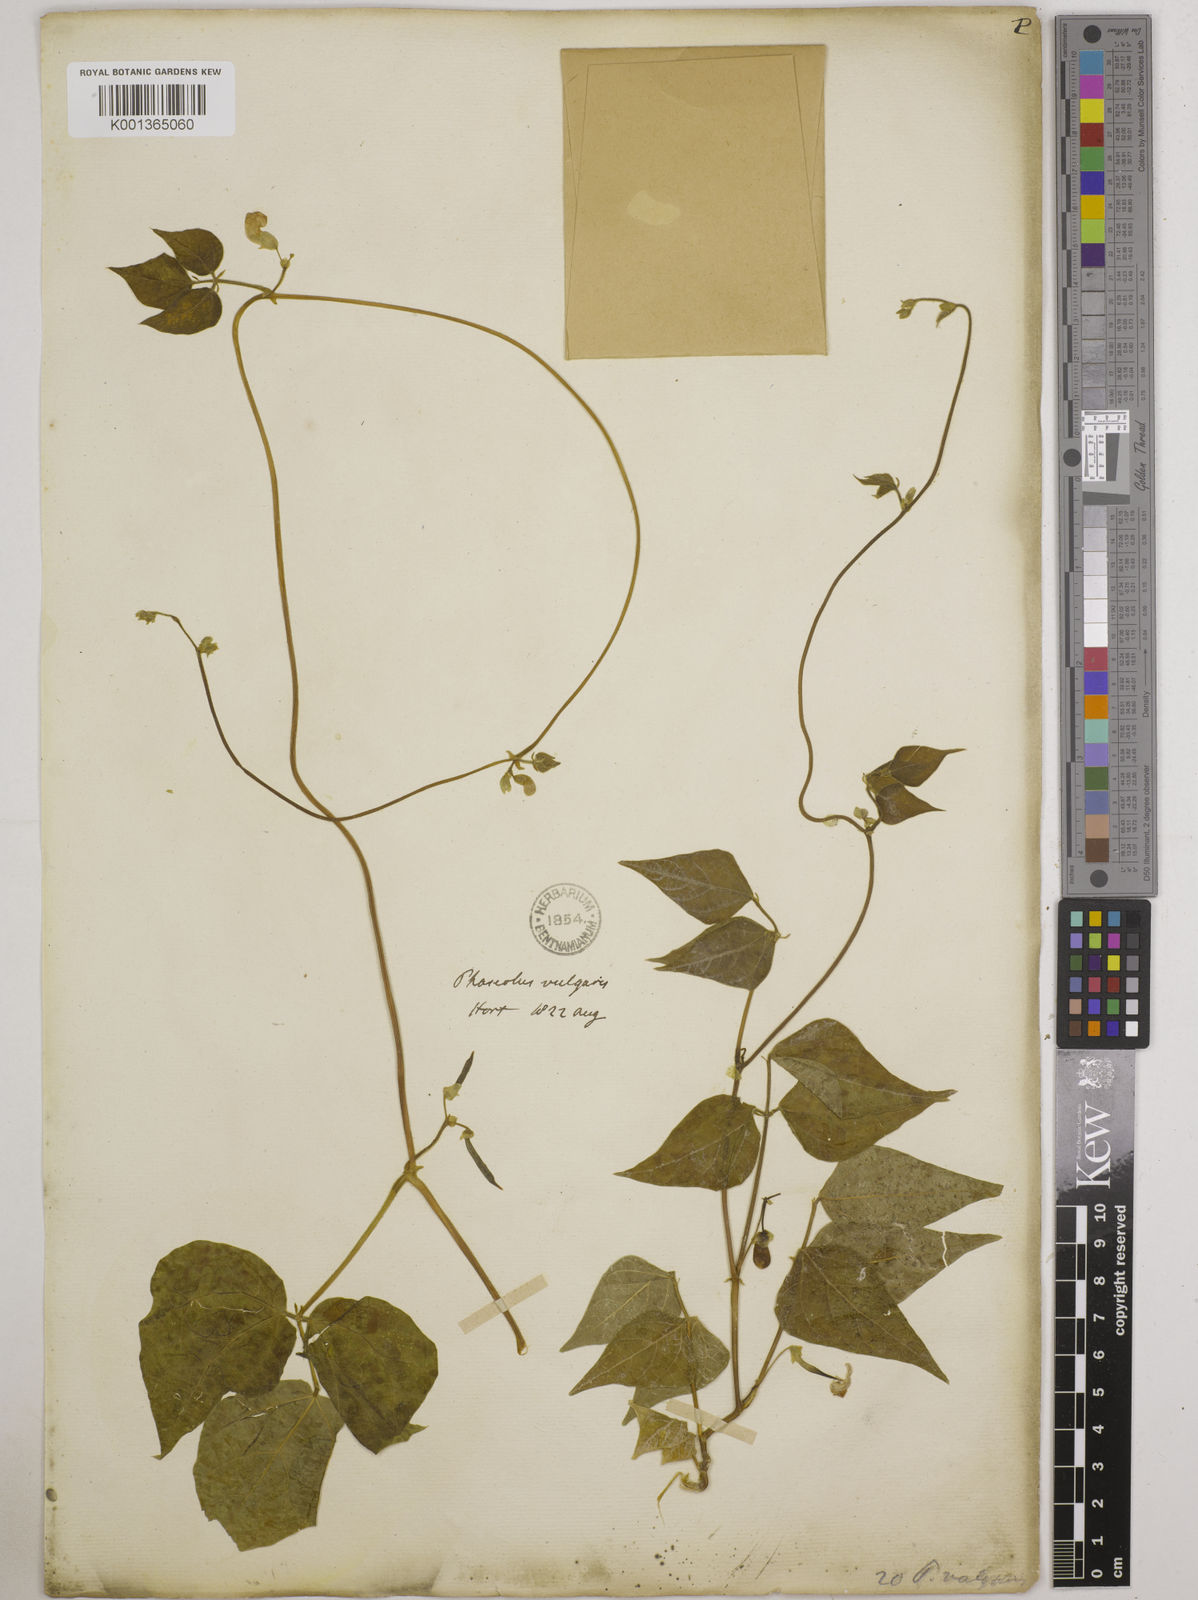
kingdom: Plantae
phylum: Tracheophyta
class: Magnoliopsida
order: Fabales
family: Fabaceae
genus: Phaseolus
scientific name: Phaseolus vulgaris
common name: Bean
